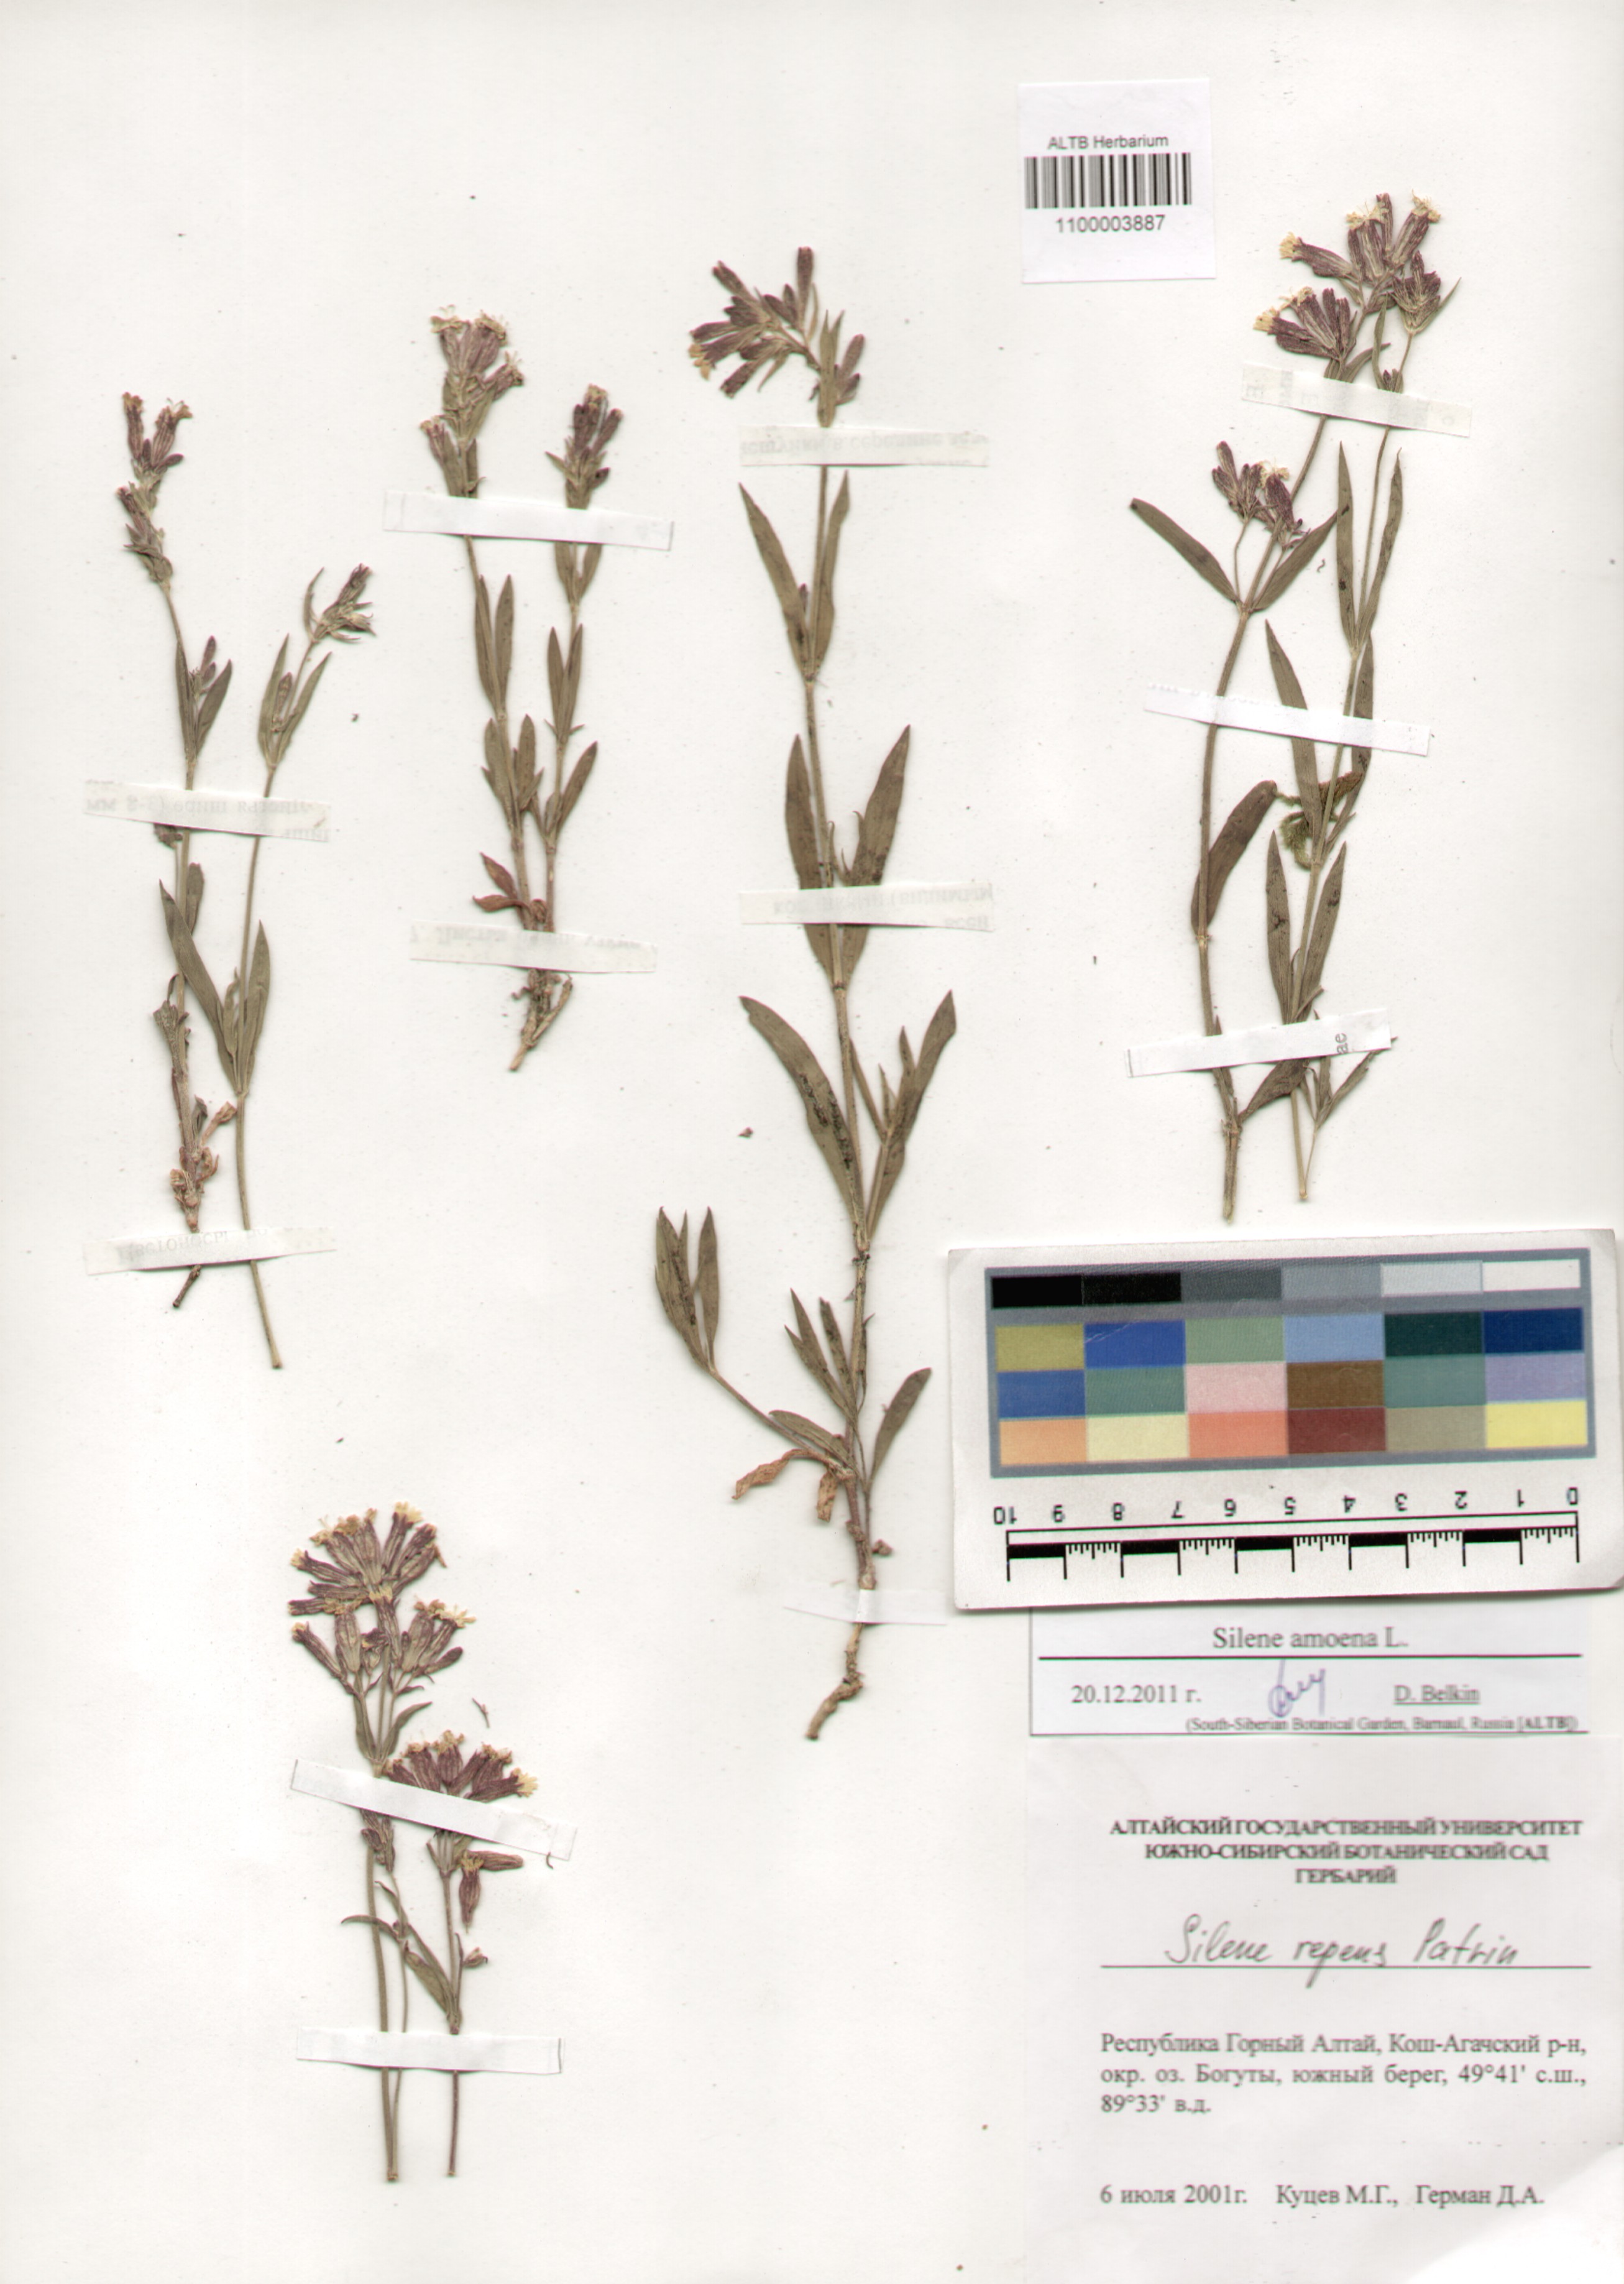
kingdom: Plantae
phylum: Tracheophyta
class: Magnoliopsida
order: Caryophyllales
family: Caryophyllaceae
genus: Silene
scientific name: Silene amoena
